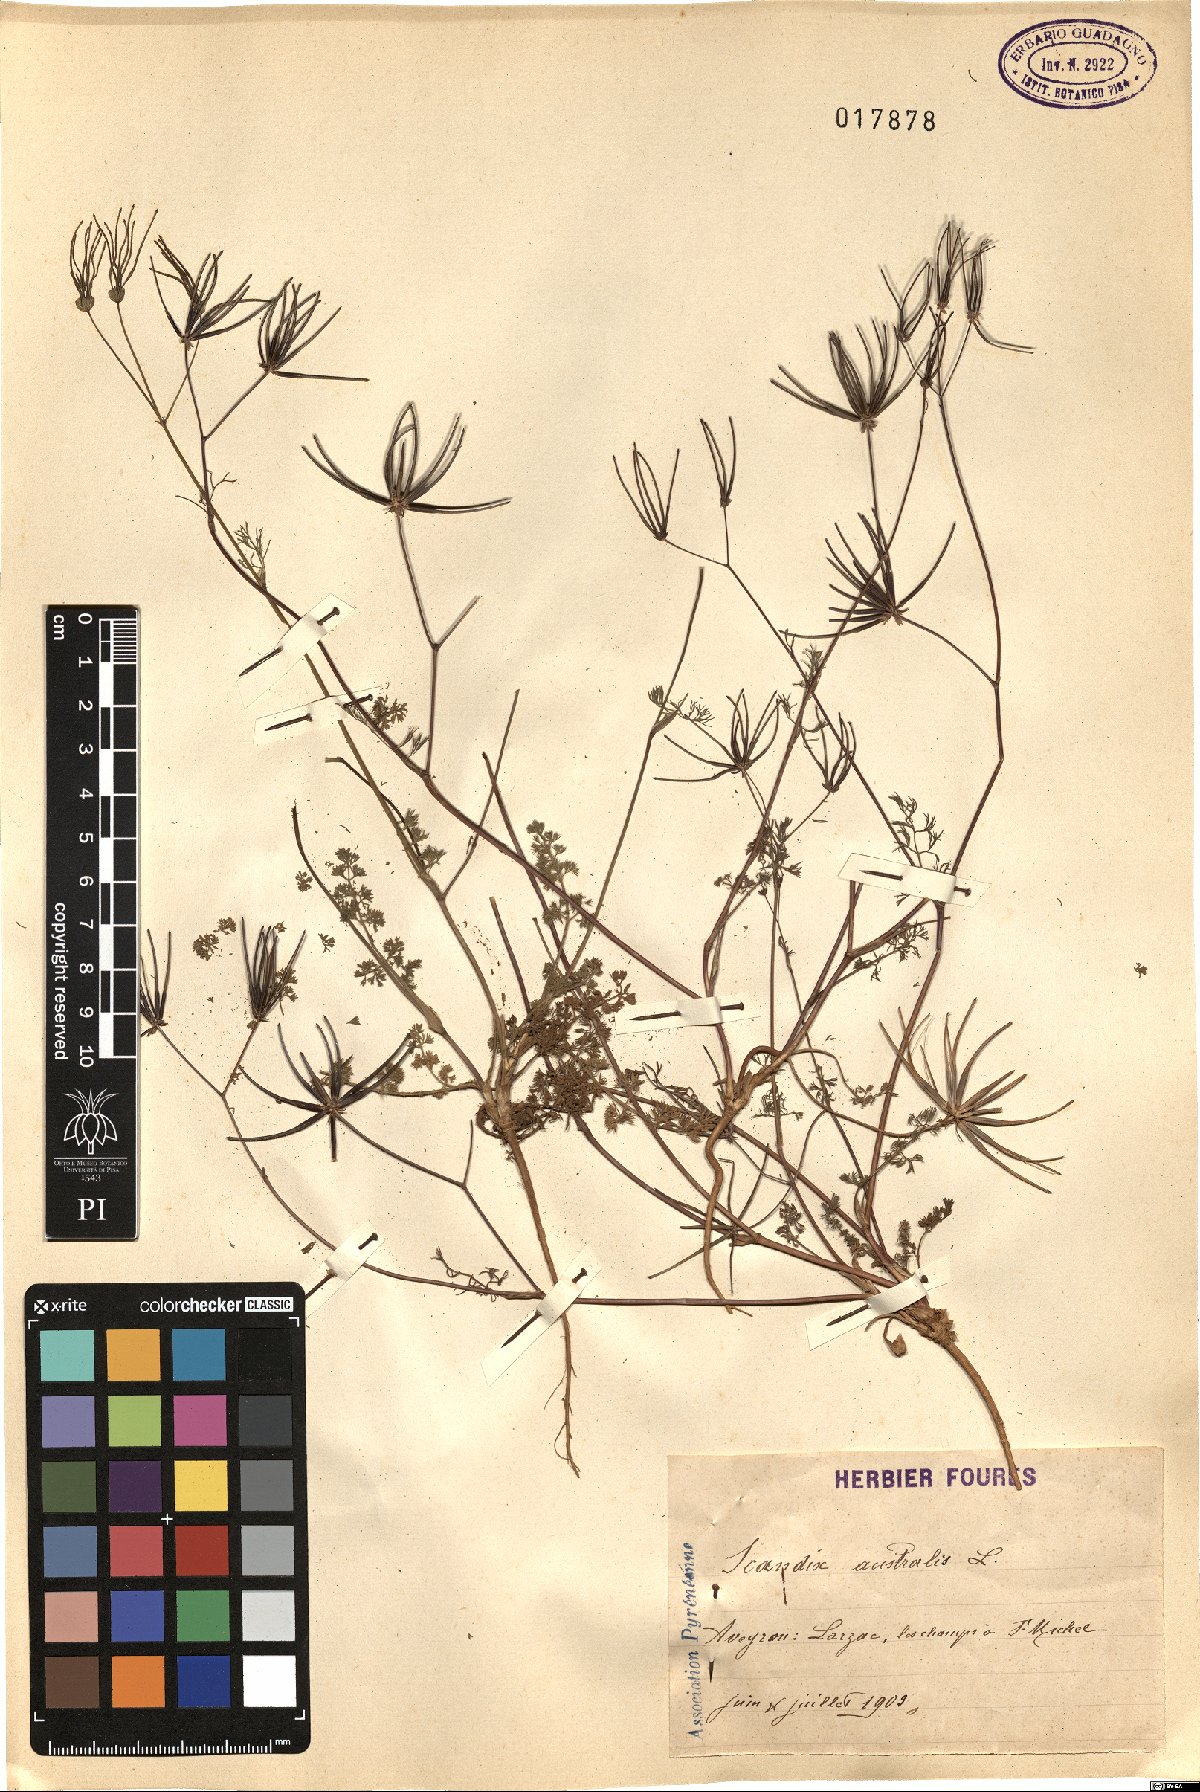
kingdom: Plantae
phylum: Tracheophyta
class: Magnoliopsida
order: Apiales
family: Apiaceae
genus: Scandix
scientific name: Scandix australis
